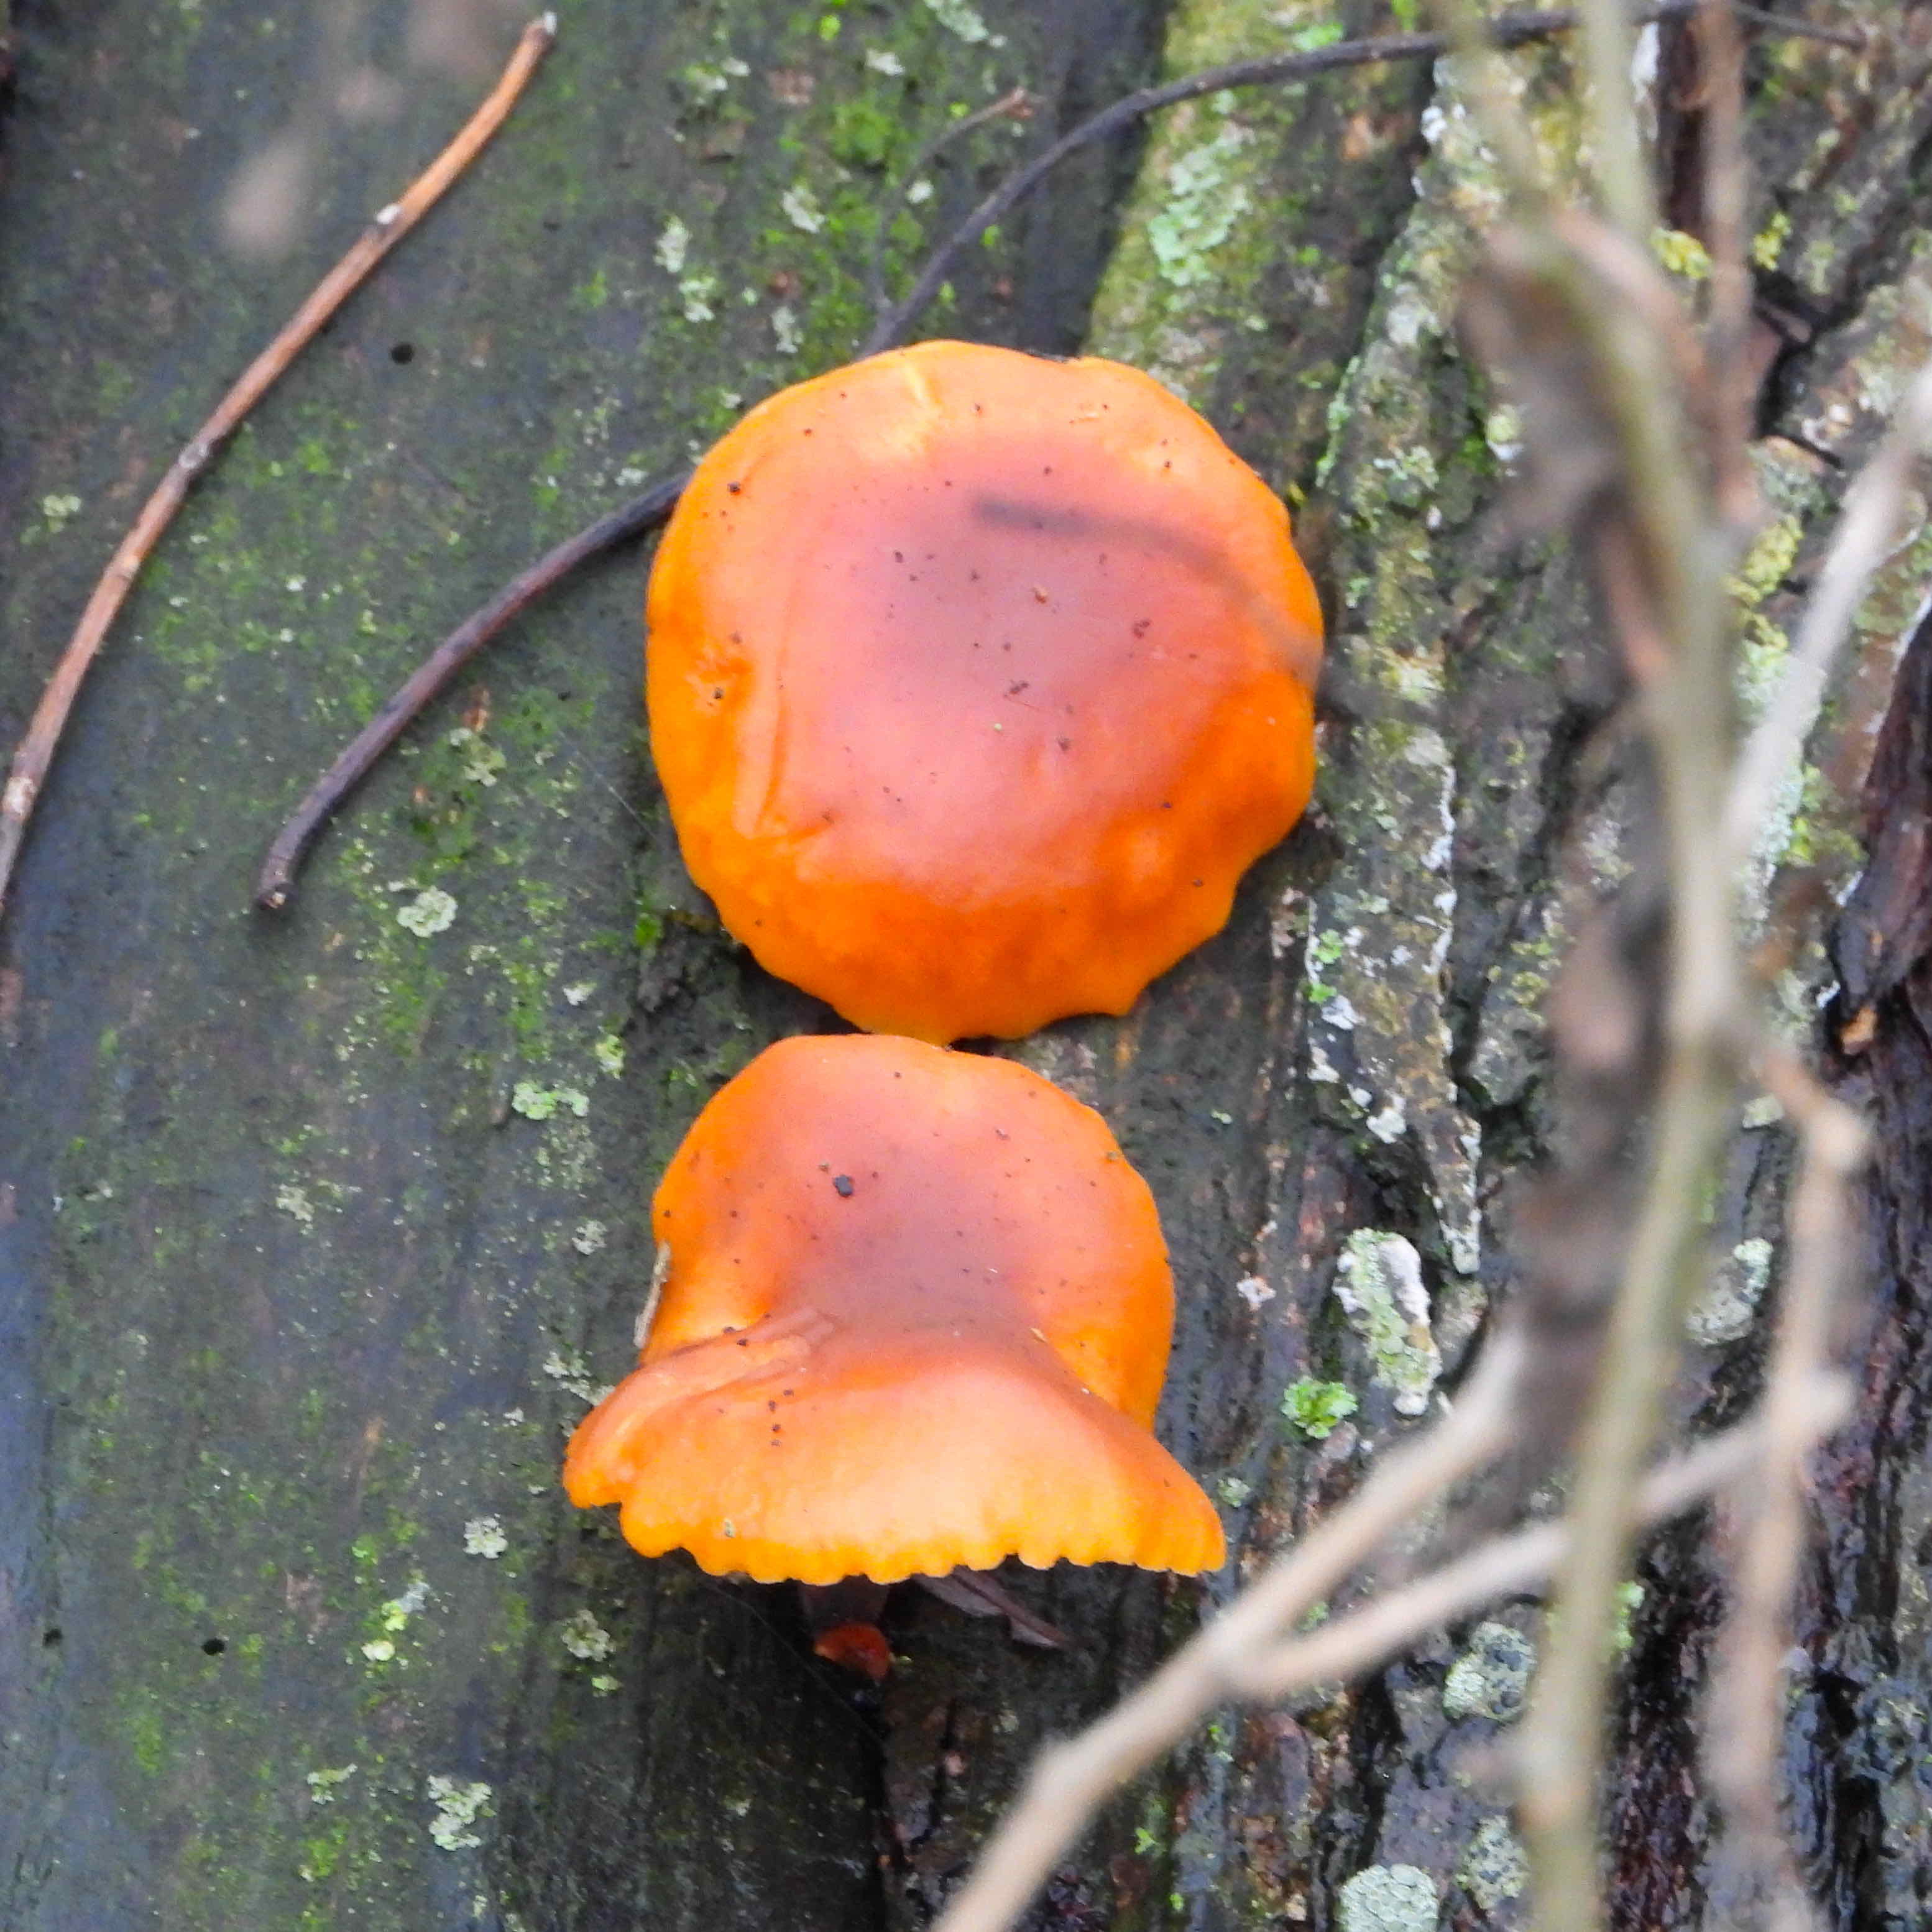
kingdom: Fungi
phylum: Basidiomycota
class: Agaricomycetes
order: Agaricales
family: Physalacriaceae
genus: Flammulina
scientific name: Flammulina
